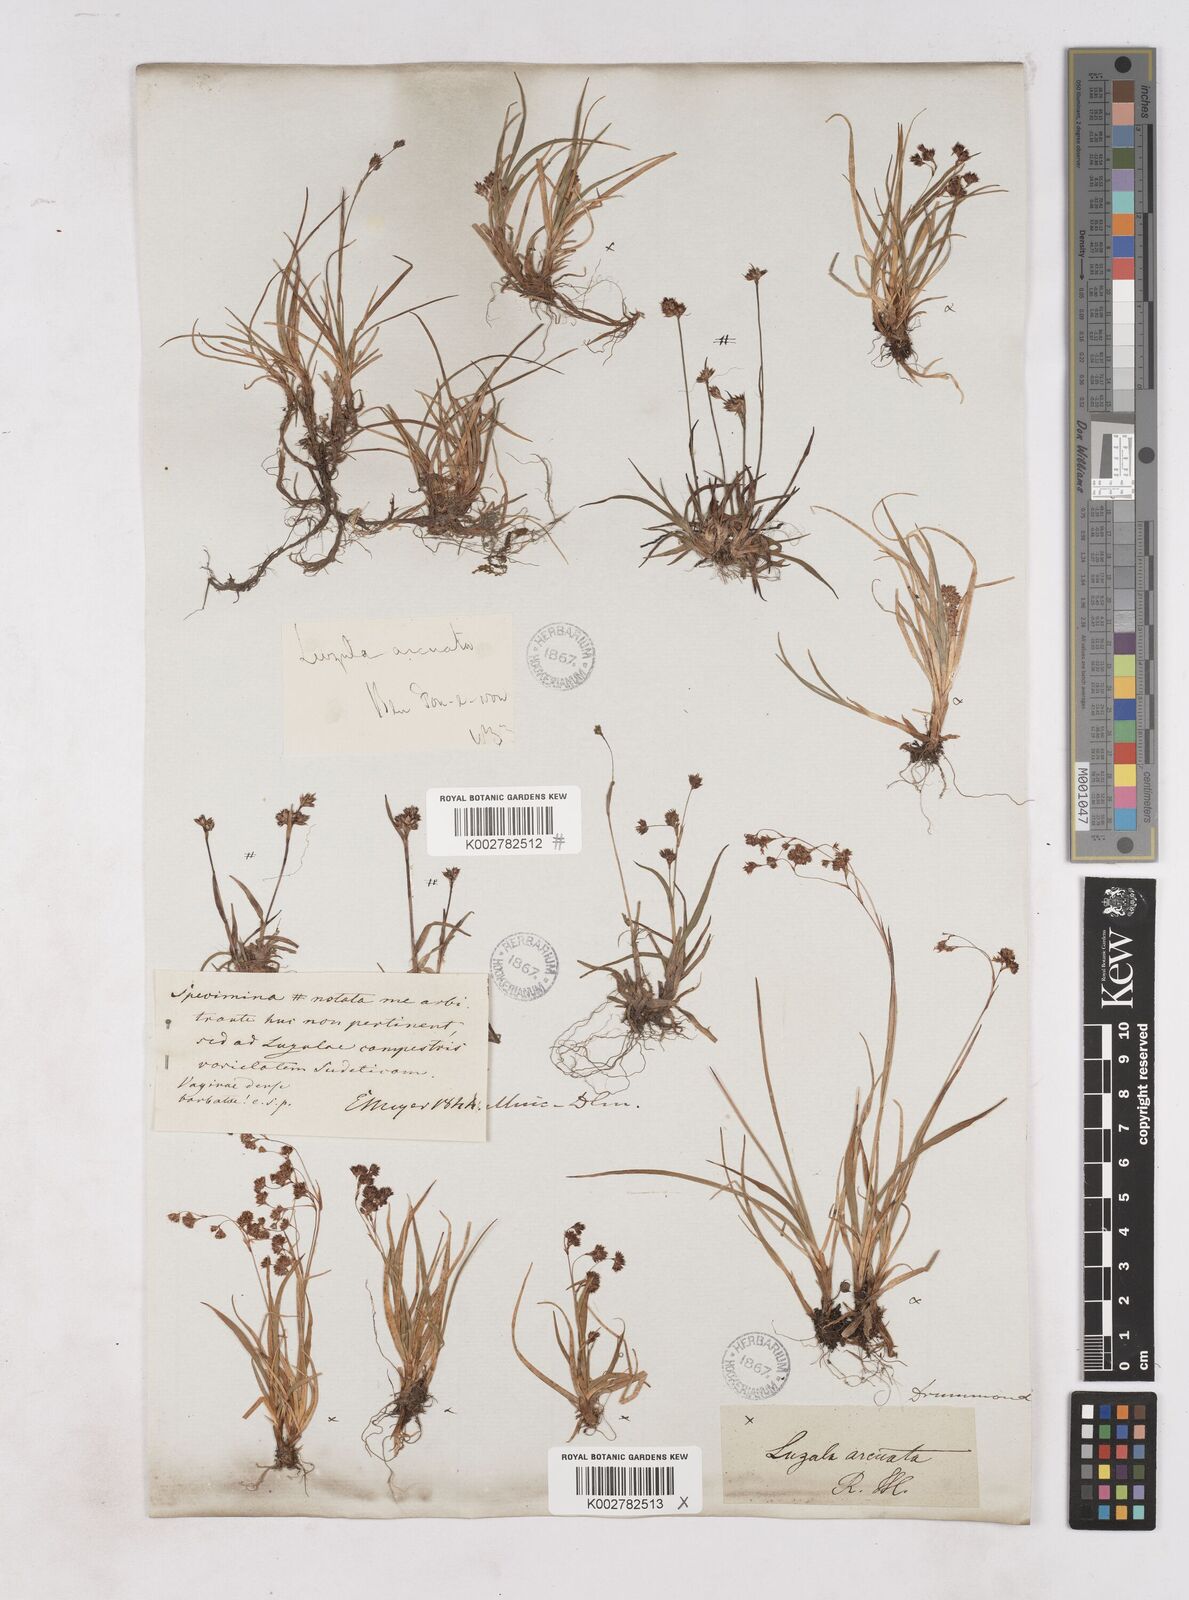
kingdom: Plantae
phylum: Tracheophyta
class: Liliopsida
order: Poales
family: Juncaceae
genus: Luzula
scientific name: Luzula arcuata
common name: Curved wood-rush
